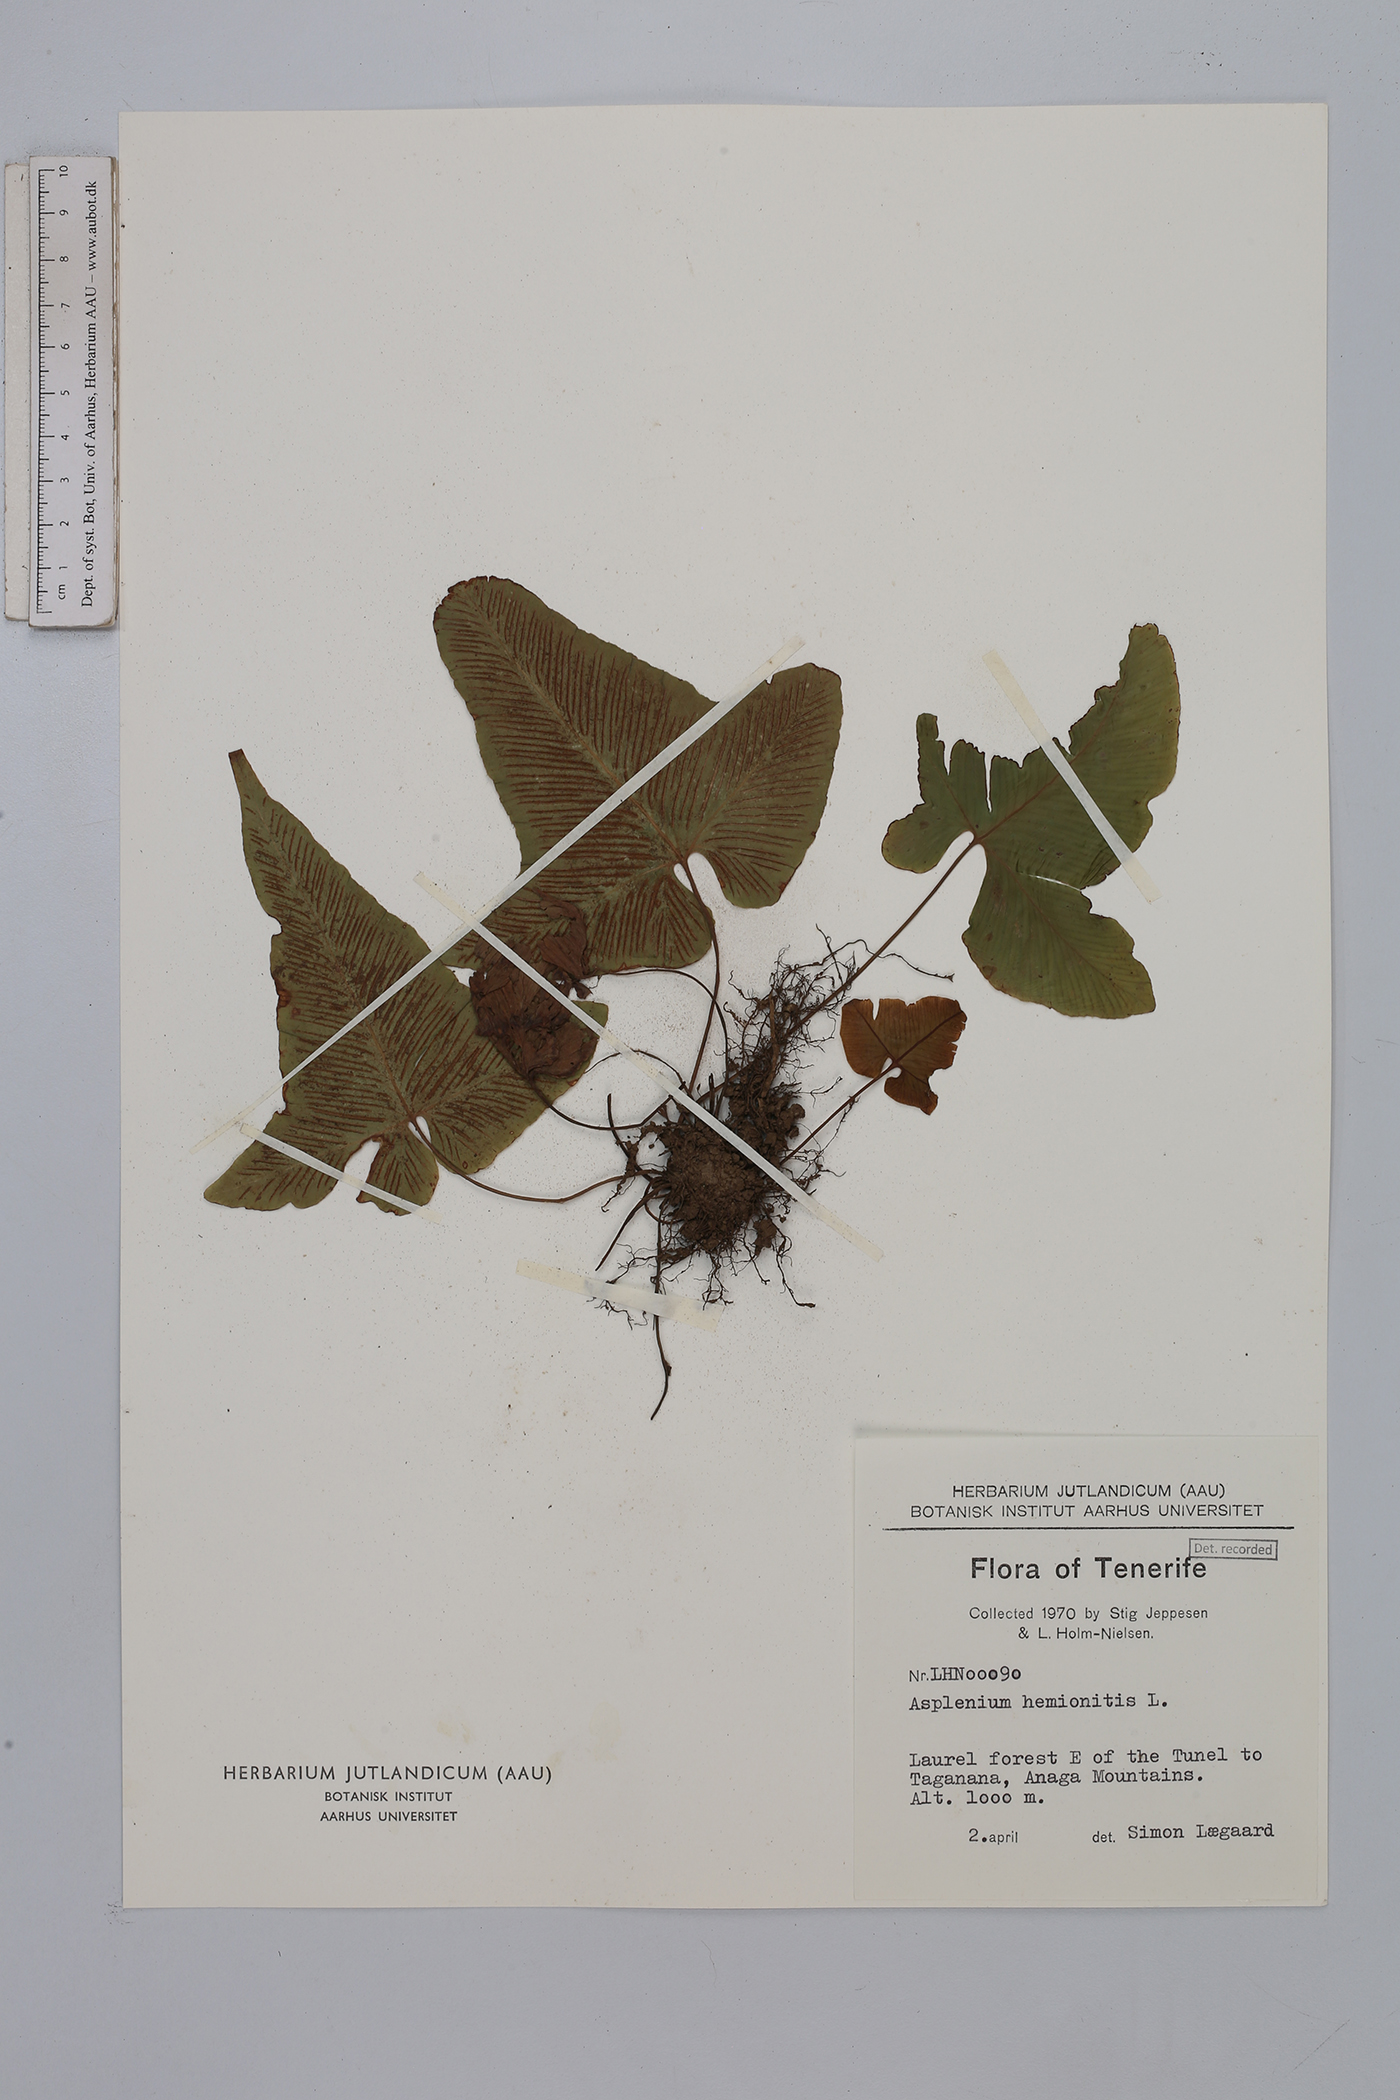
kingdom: Plantae
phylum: Tracheophyta
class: Polypodiopsida
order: Polypodiales
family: Aspleniaceae
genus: Asplenium
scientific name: Asplenium hemionitis
